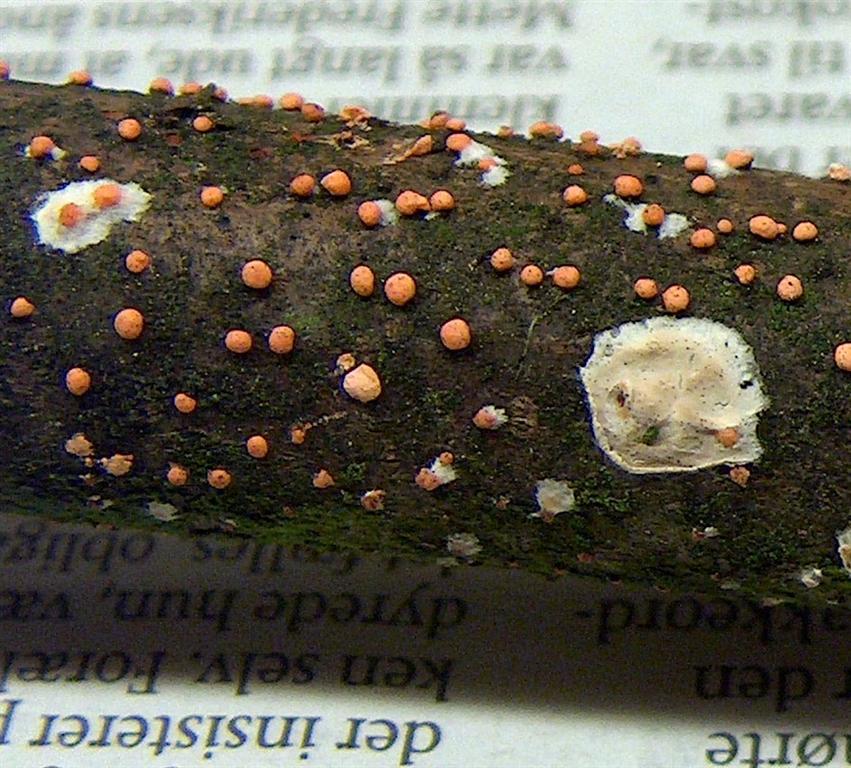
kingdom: Fungi
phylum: Ascomycota
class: Sordariomycetes
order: Hypocreales
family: Nectriaceae
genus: Nectria
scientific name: Nectria cinnabarina
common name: almindelig cinnobersvamp
